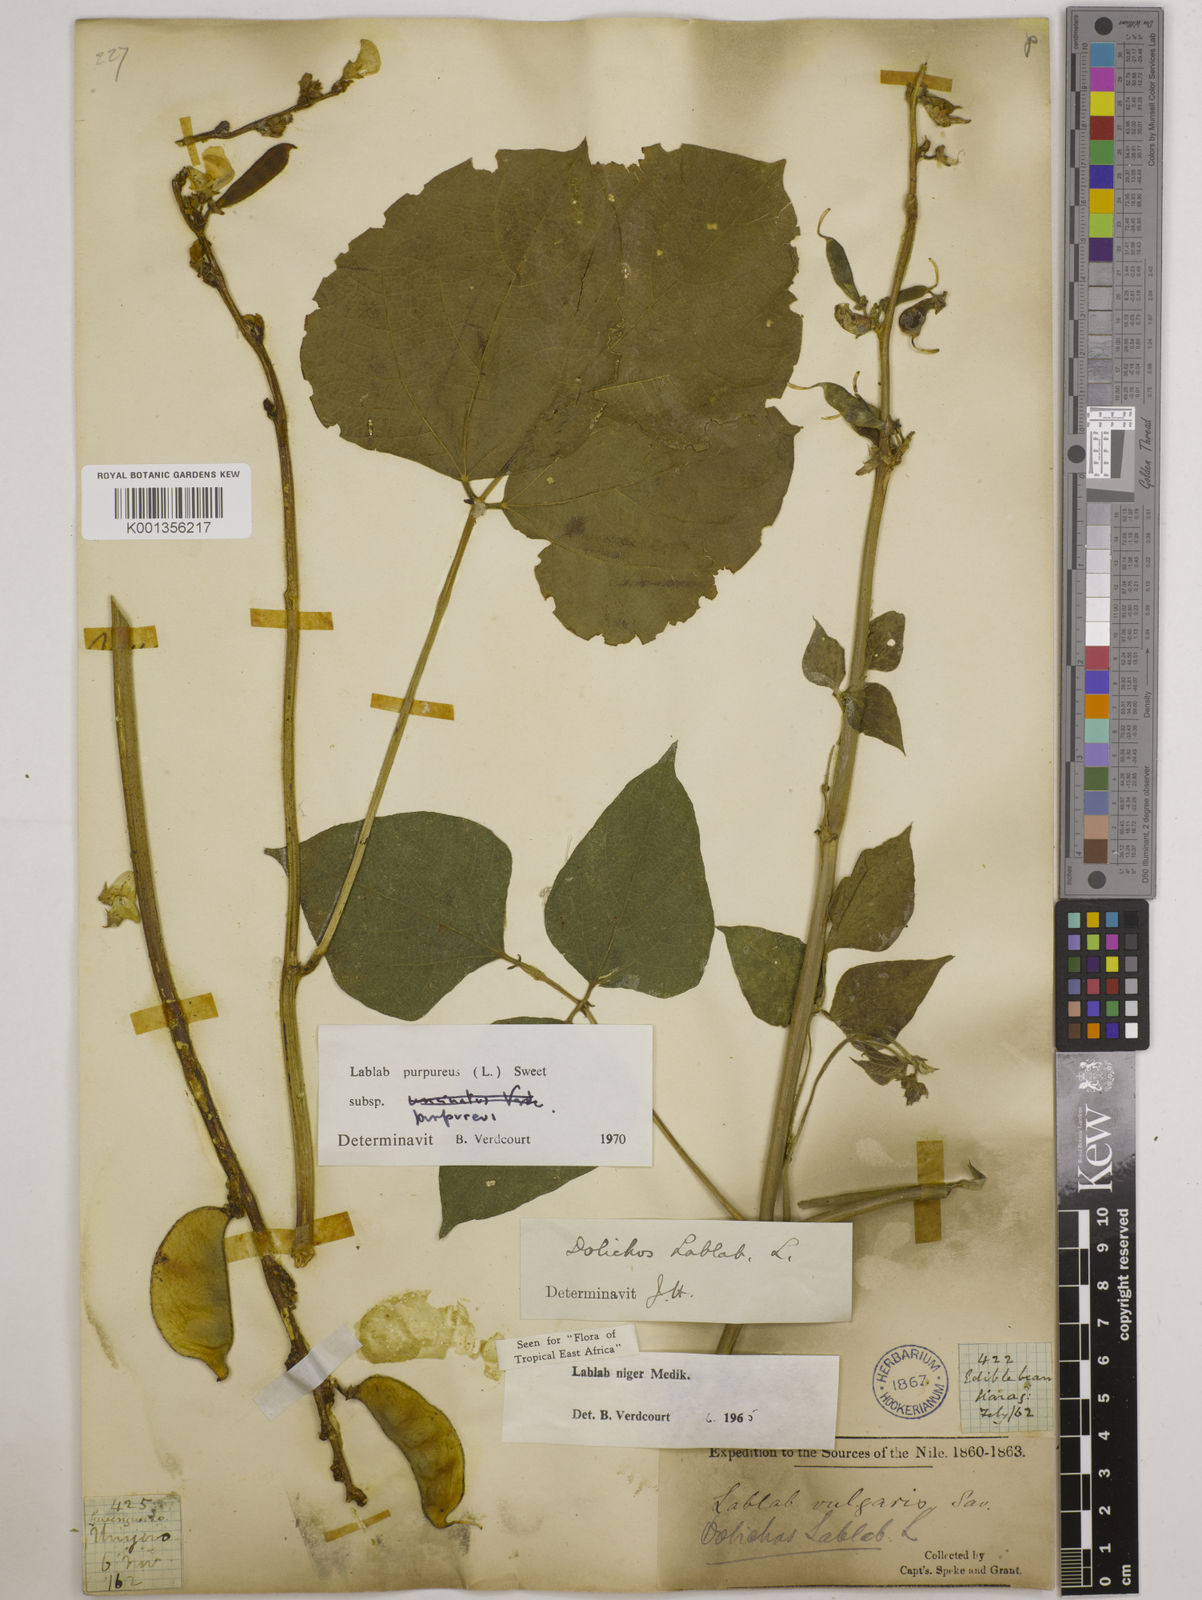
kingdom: Plantae
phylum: Tracheophyta
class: Magnoliopsida
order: Fabales
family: Fabaceae
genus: Lablab
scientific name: Lablab purpureus
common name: Lablab-bean
